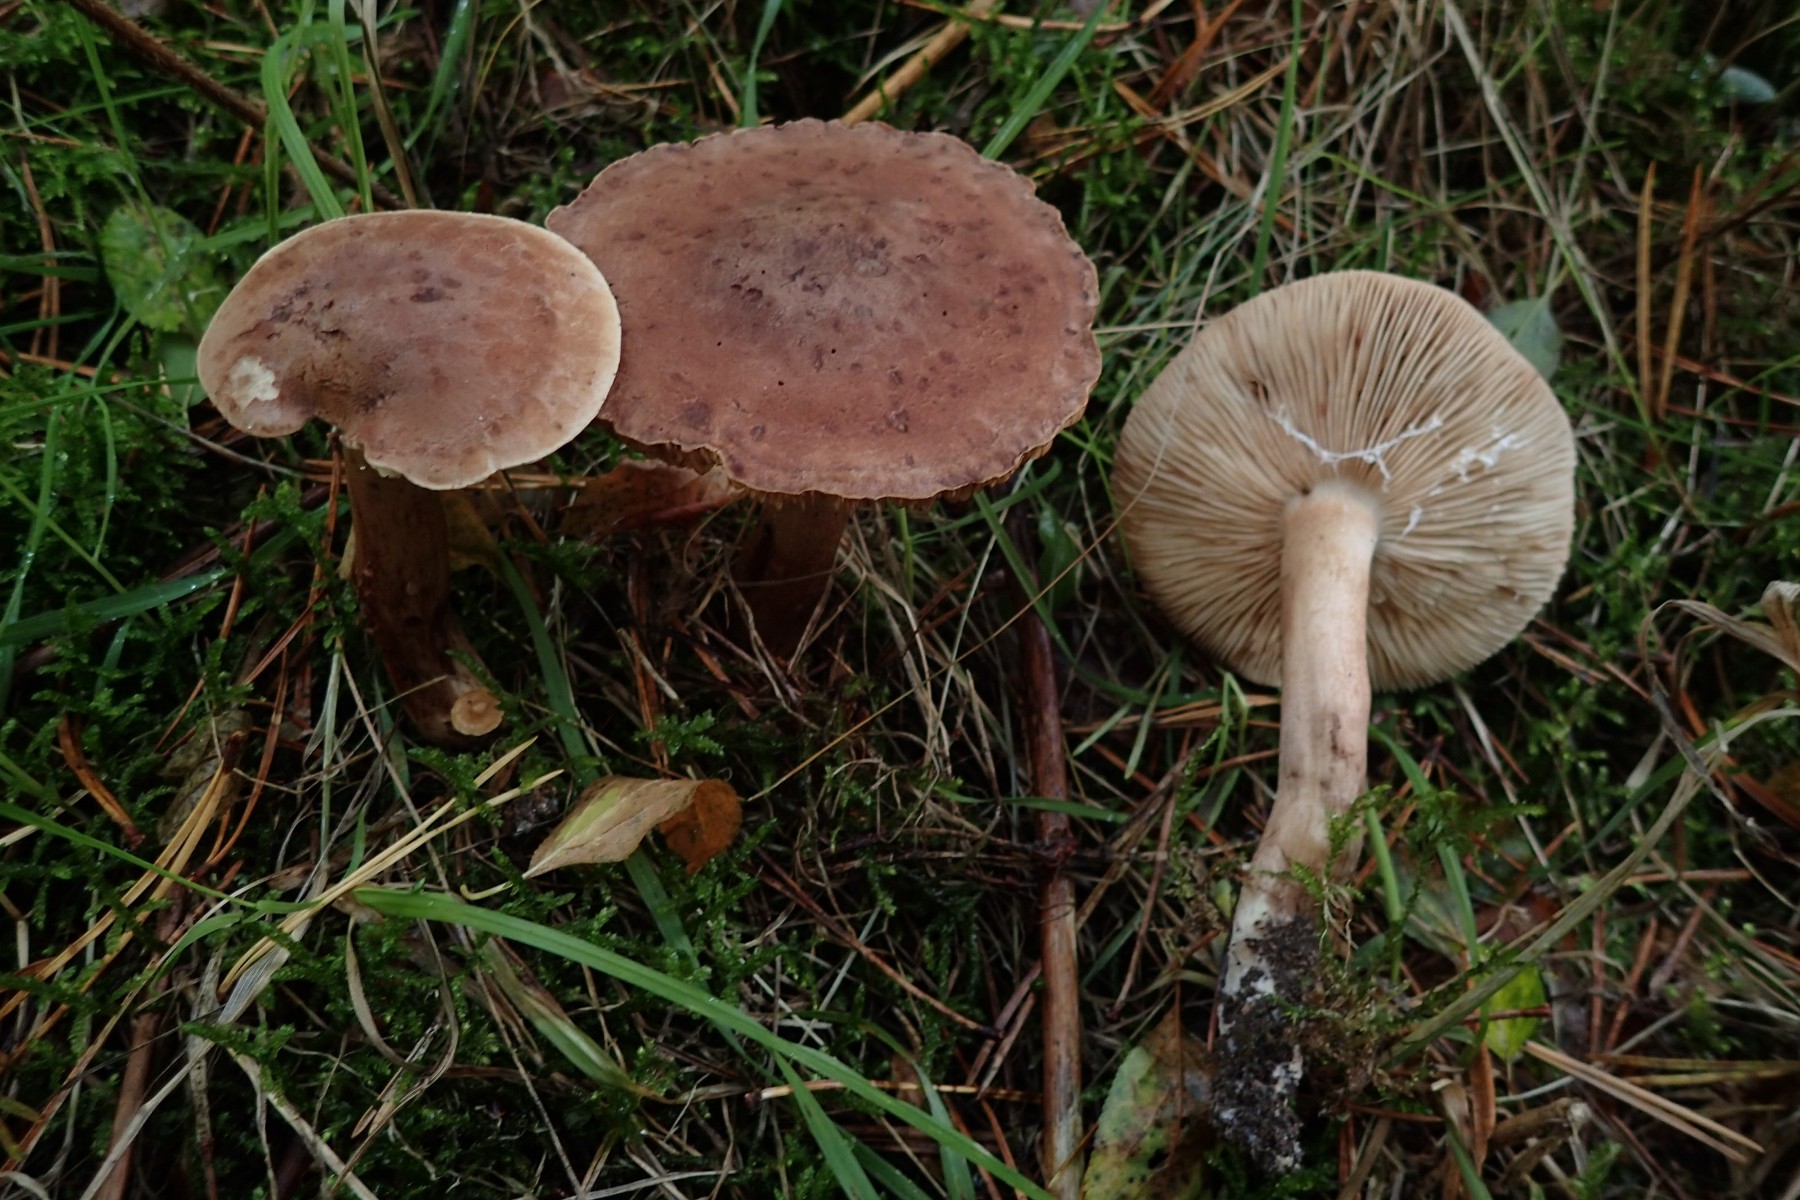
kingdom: Fungi
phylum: Basidiomycota
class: Agaricomycetes
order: Agaricales
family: Tricholomataceae
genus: Tricholoma
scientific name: Tricholoma imbricatum
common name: skællet ridderhat
